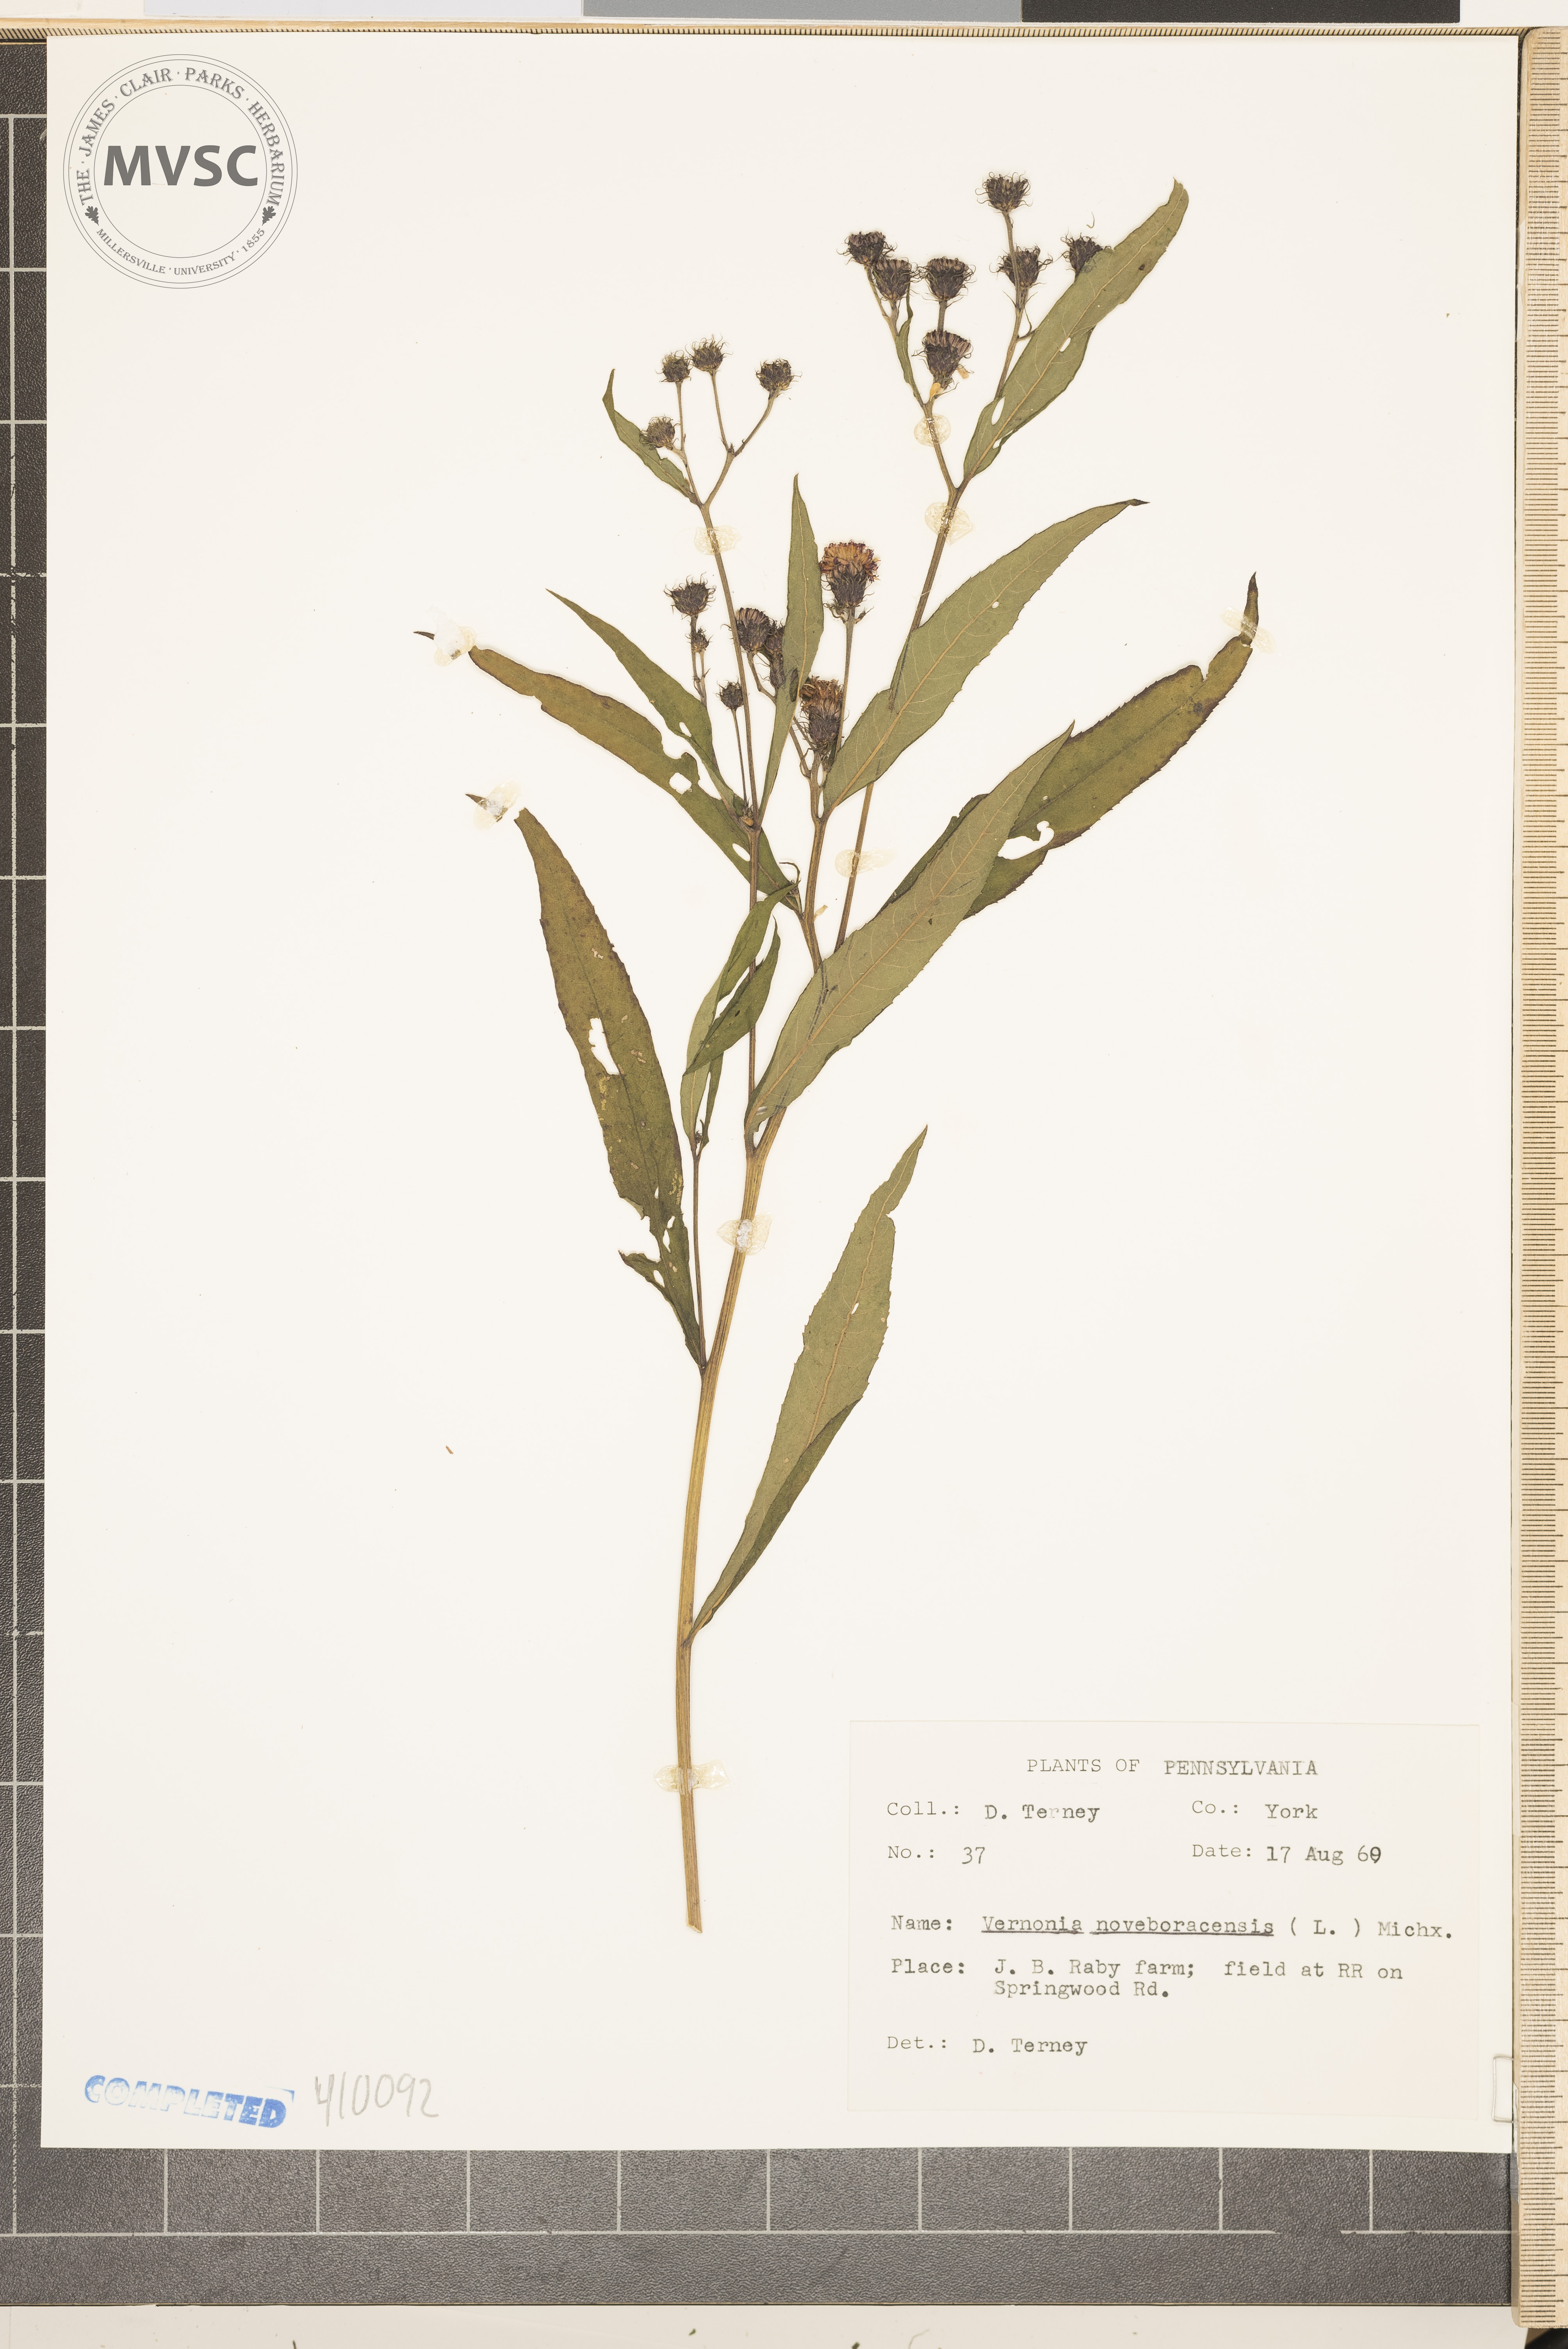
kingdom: Plantae
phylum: Tracheophyta
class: Magnoliopsida
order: Asterales
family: Asteraceae
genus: Vernonia
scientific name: Vernonia noveboracensis
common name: New york ironweed
